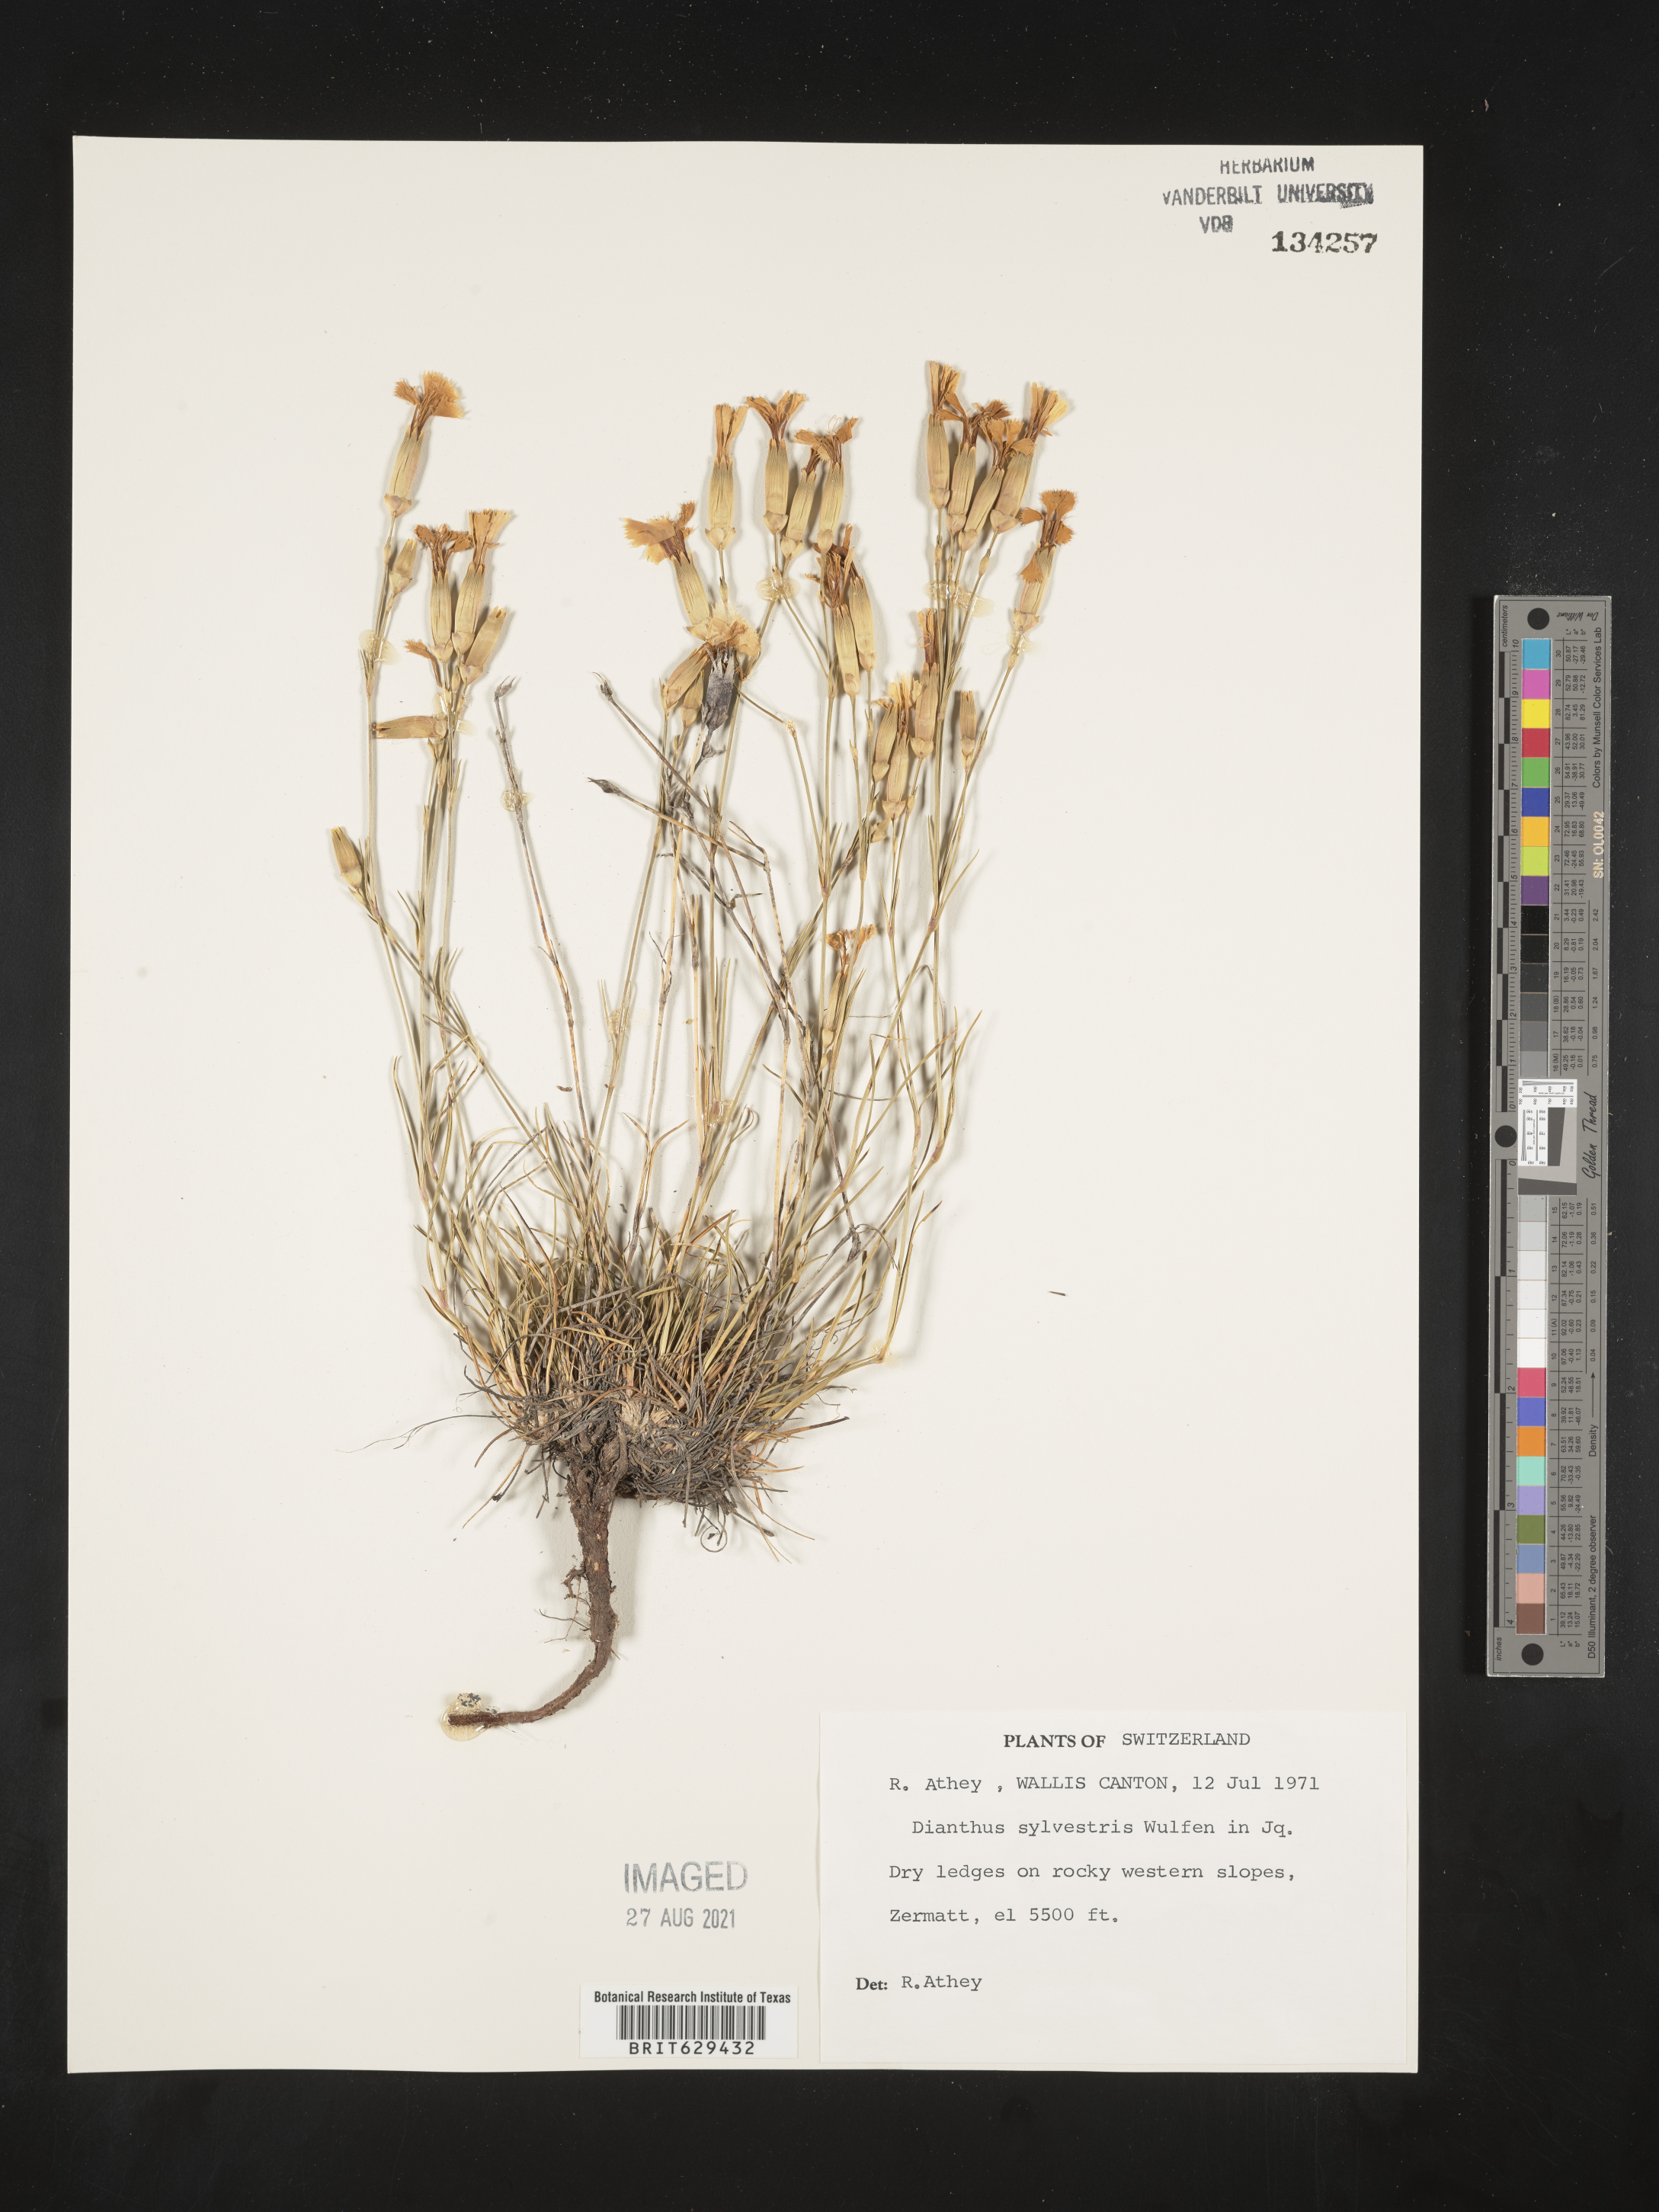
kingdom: Plantae
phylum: Tracheophyta
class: Magnoliopsida
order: Caryophyllales
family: Caryophyllaceae
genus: Dianthus
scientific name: Dianthus sylvestris
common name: Wood pink
